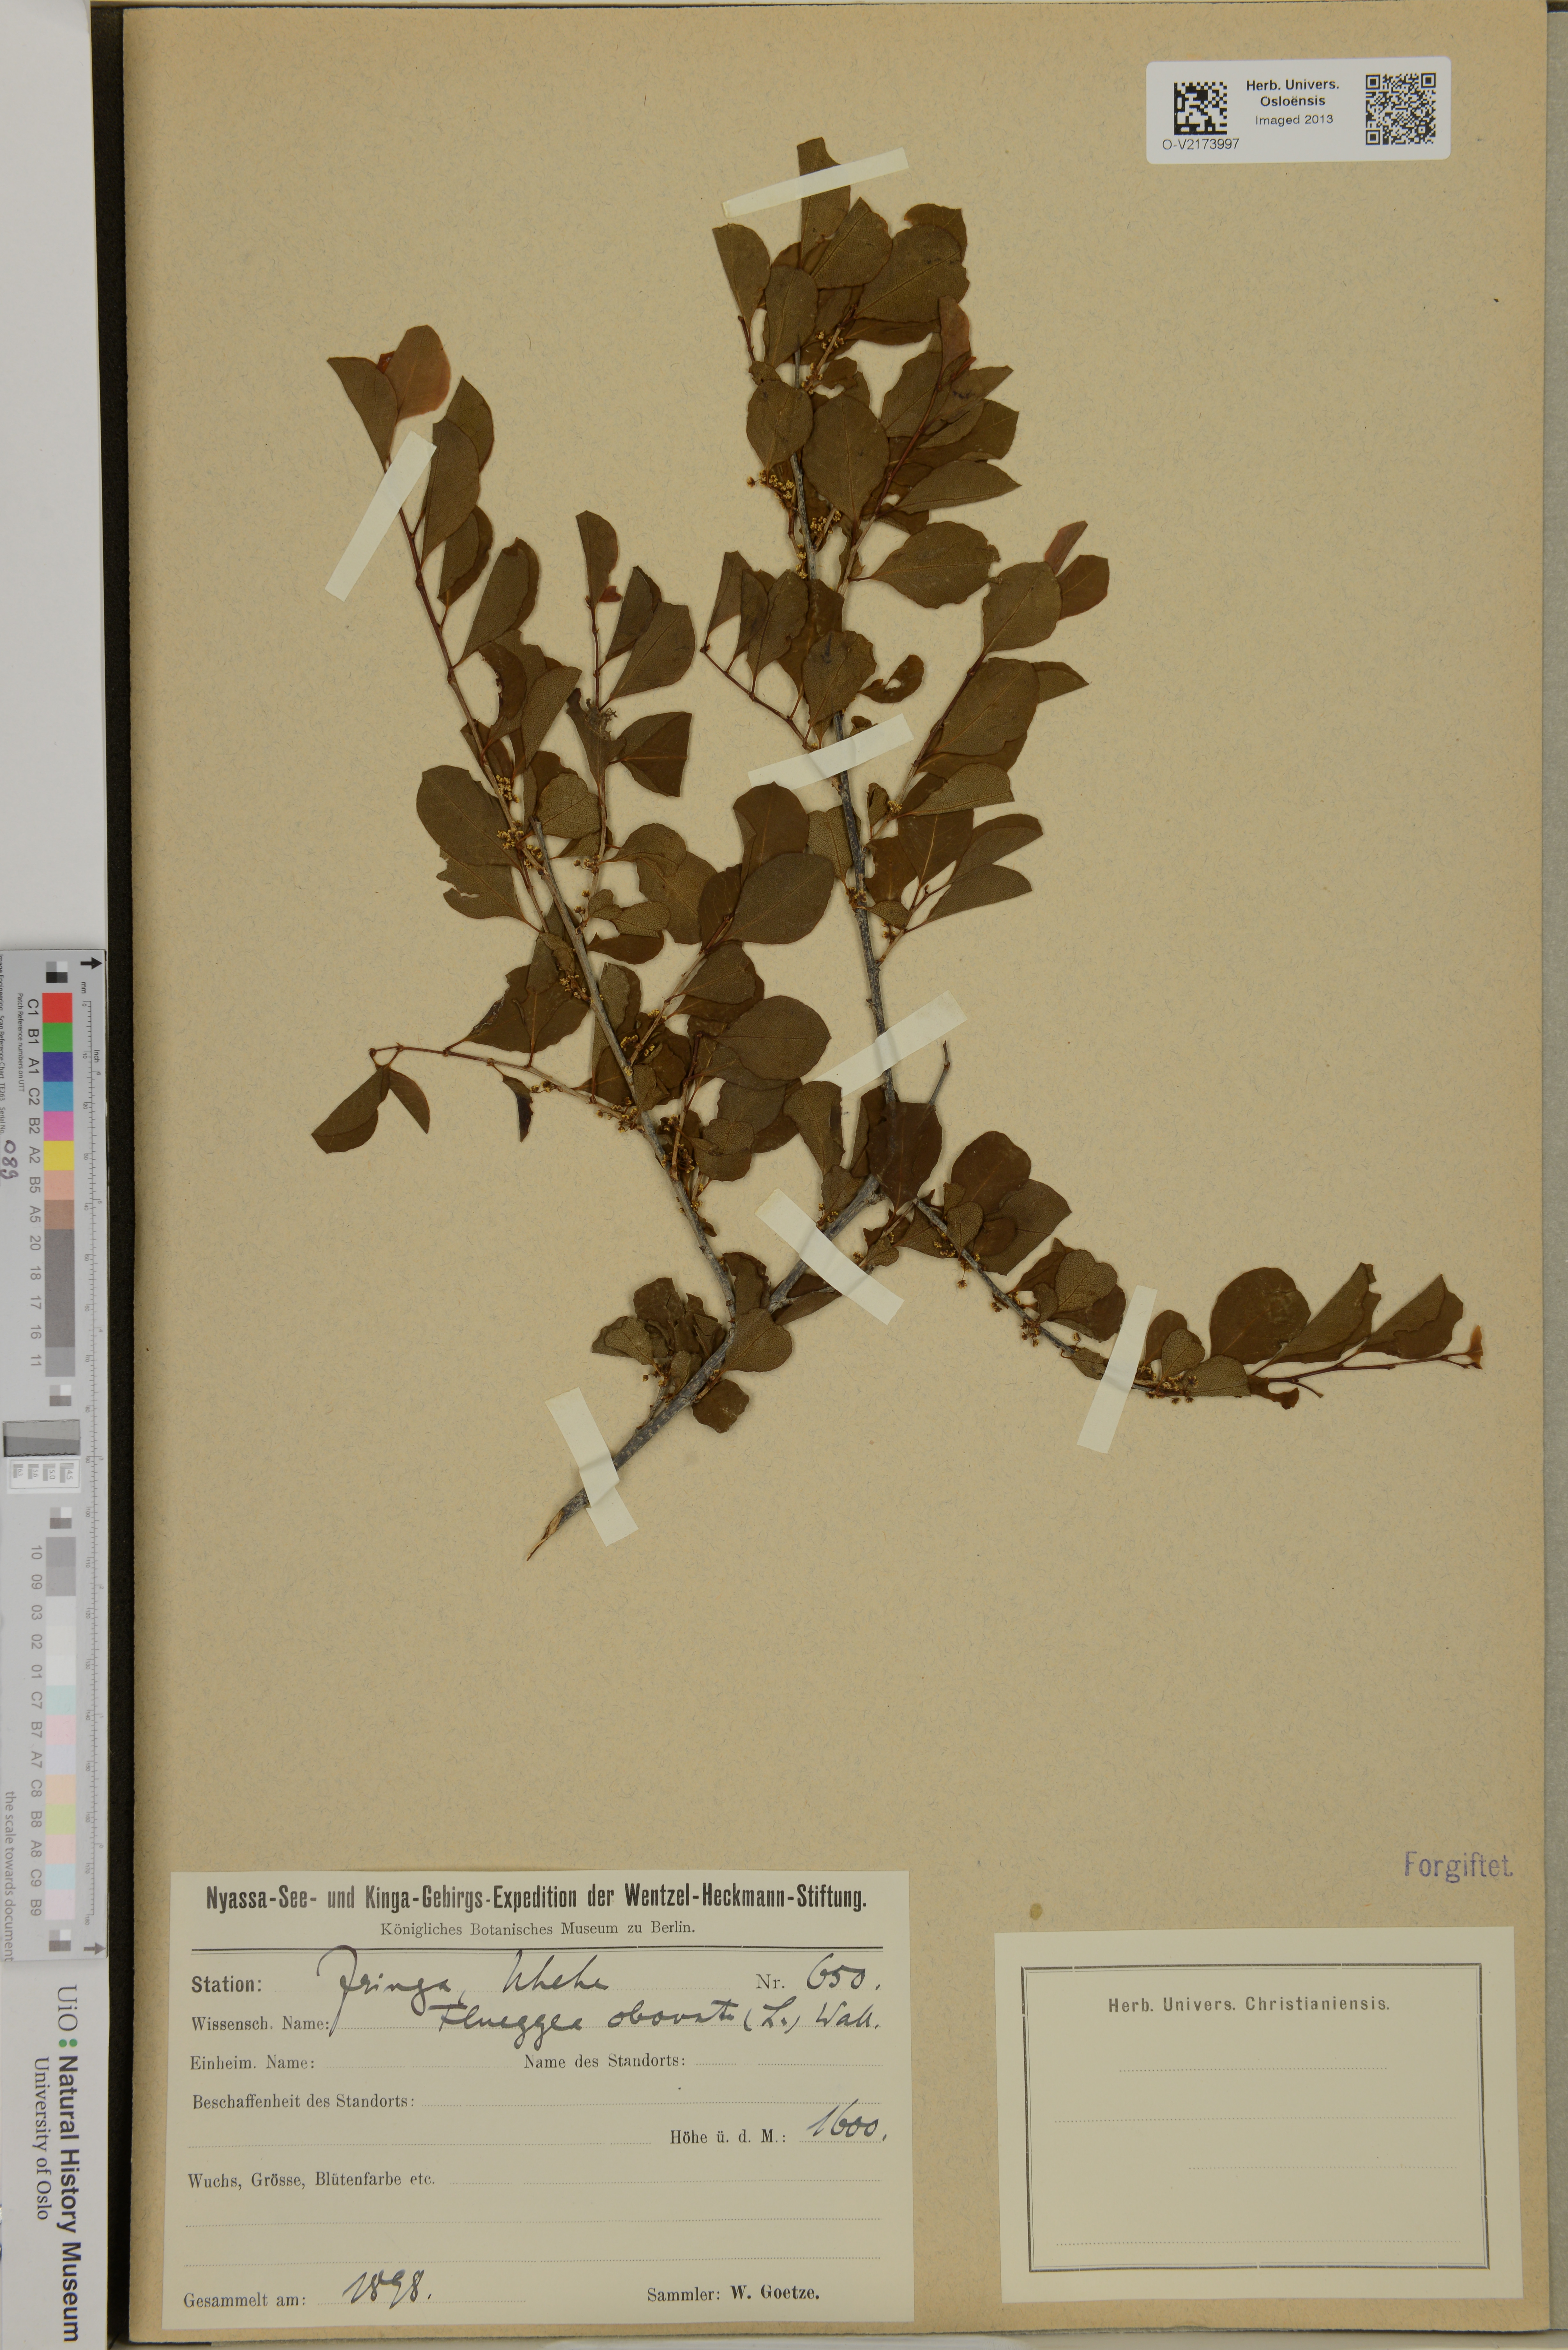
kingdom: Plantae
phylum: Tracheophyta
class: Magnoliopsida
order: Malpighiales
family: Phyllanthaceae
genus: Flueggea
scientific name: Flueggea obovata
